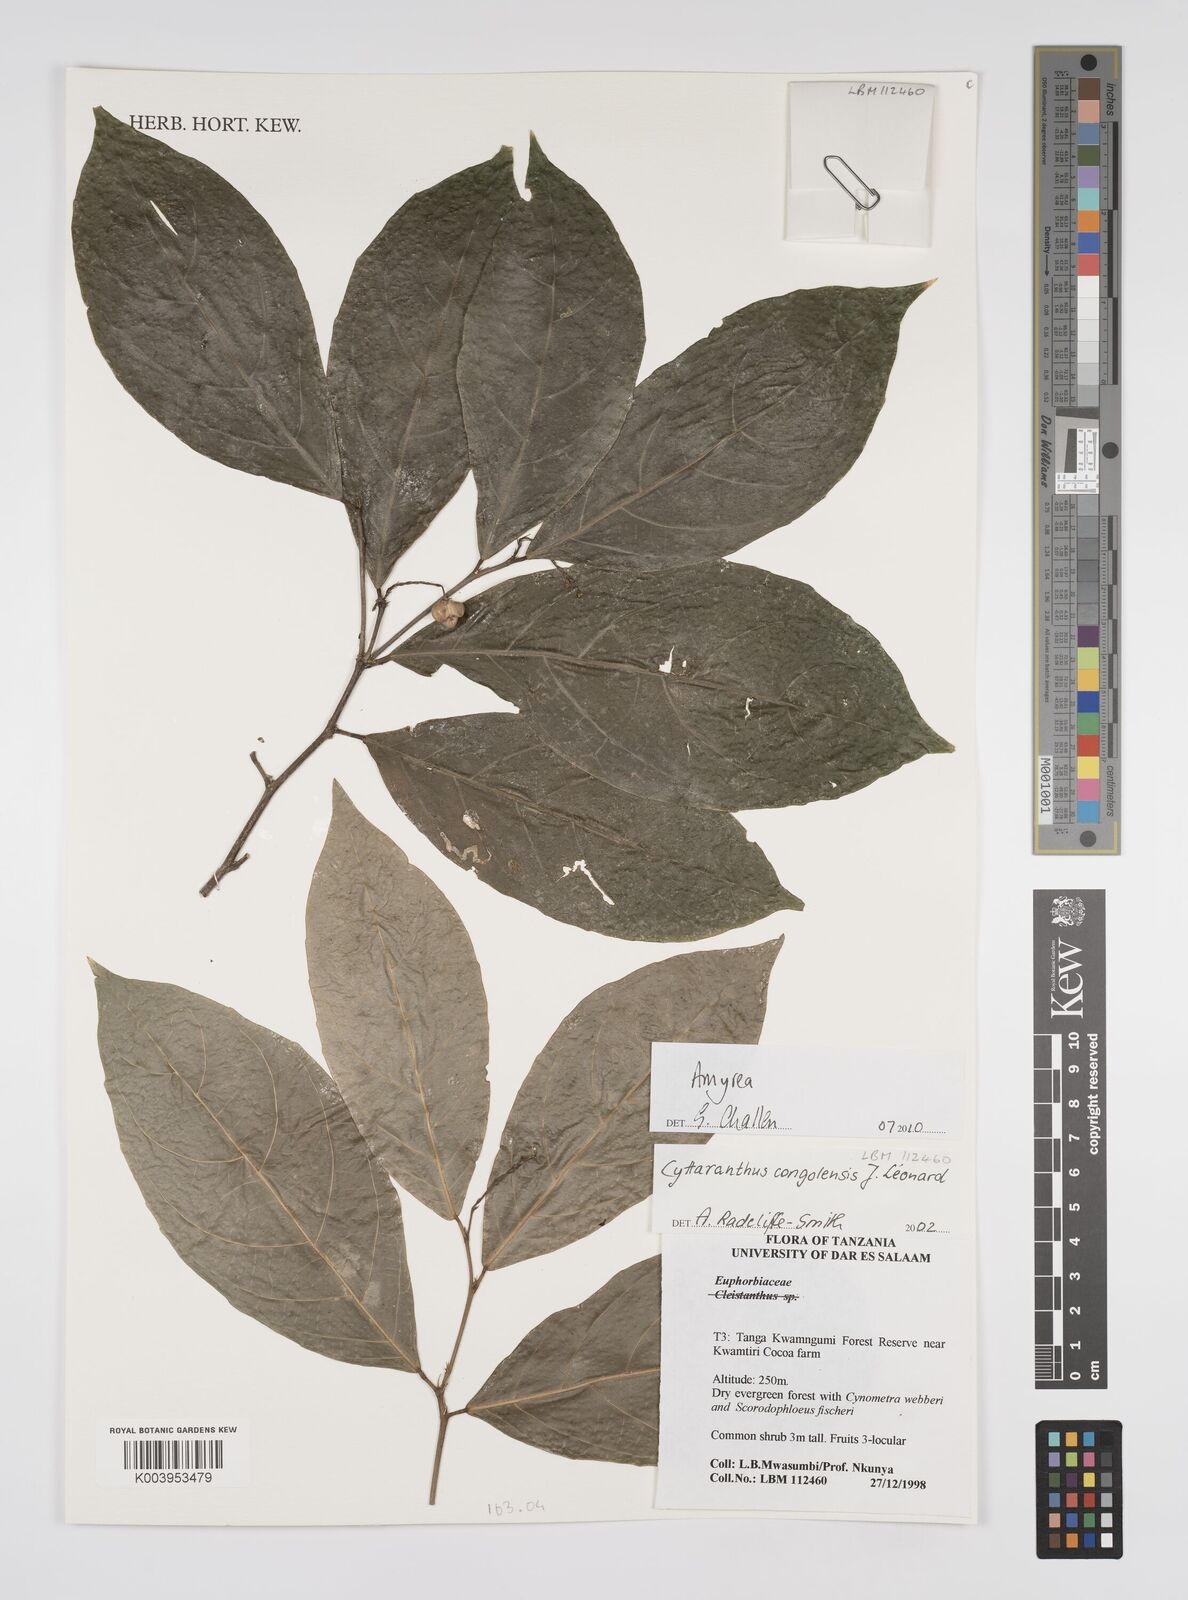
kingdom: Plantae
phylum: Tracheophyta
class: Magnoliopsida
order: Malpighiales
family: Euphorbiaceae
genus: Amyrea
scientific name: Amyrea
